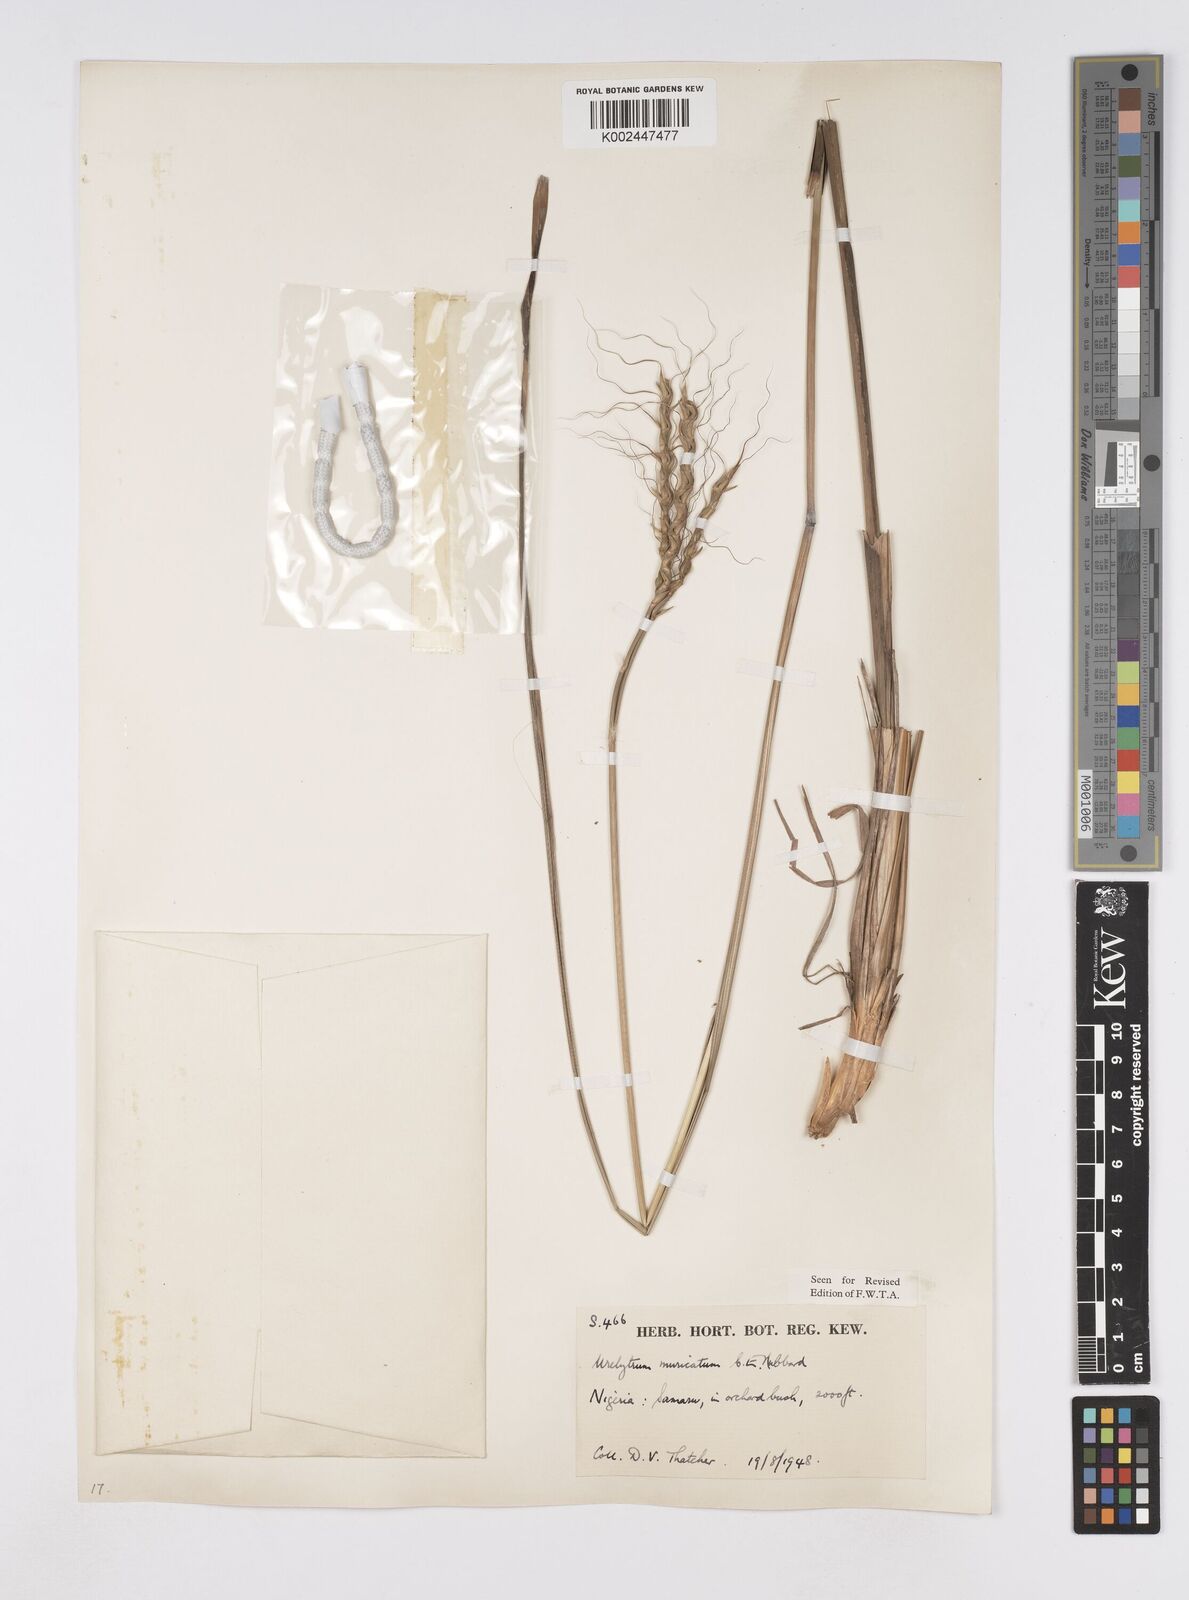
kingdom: Plantae
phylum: Tracheophyta
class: Liliopsida
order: Poales
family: Poaceae
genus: Urelytrum
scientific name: Urelytrum muricatum
